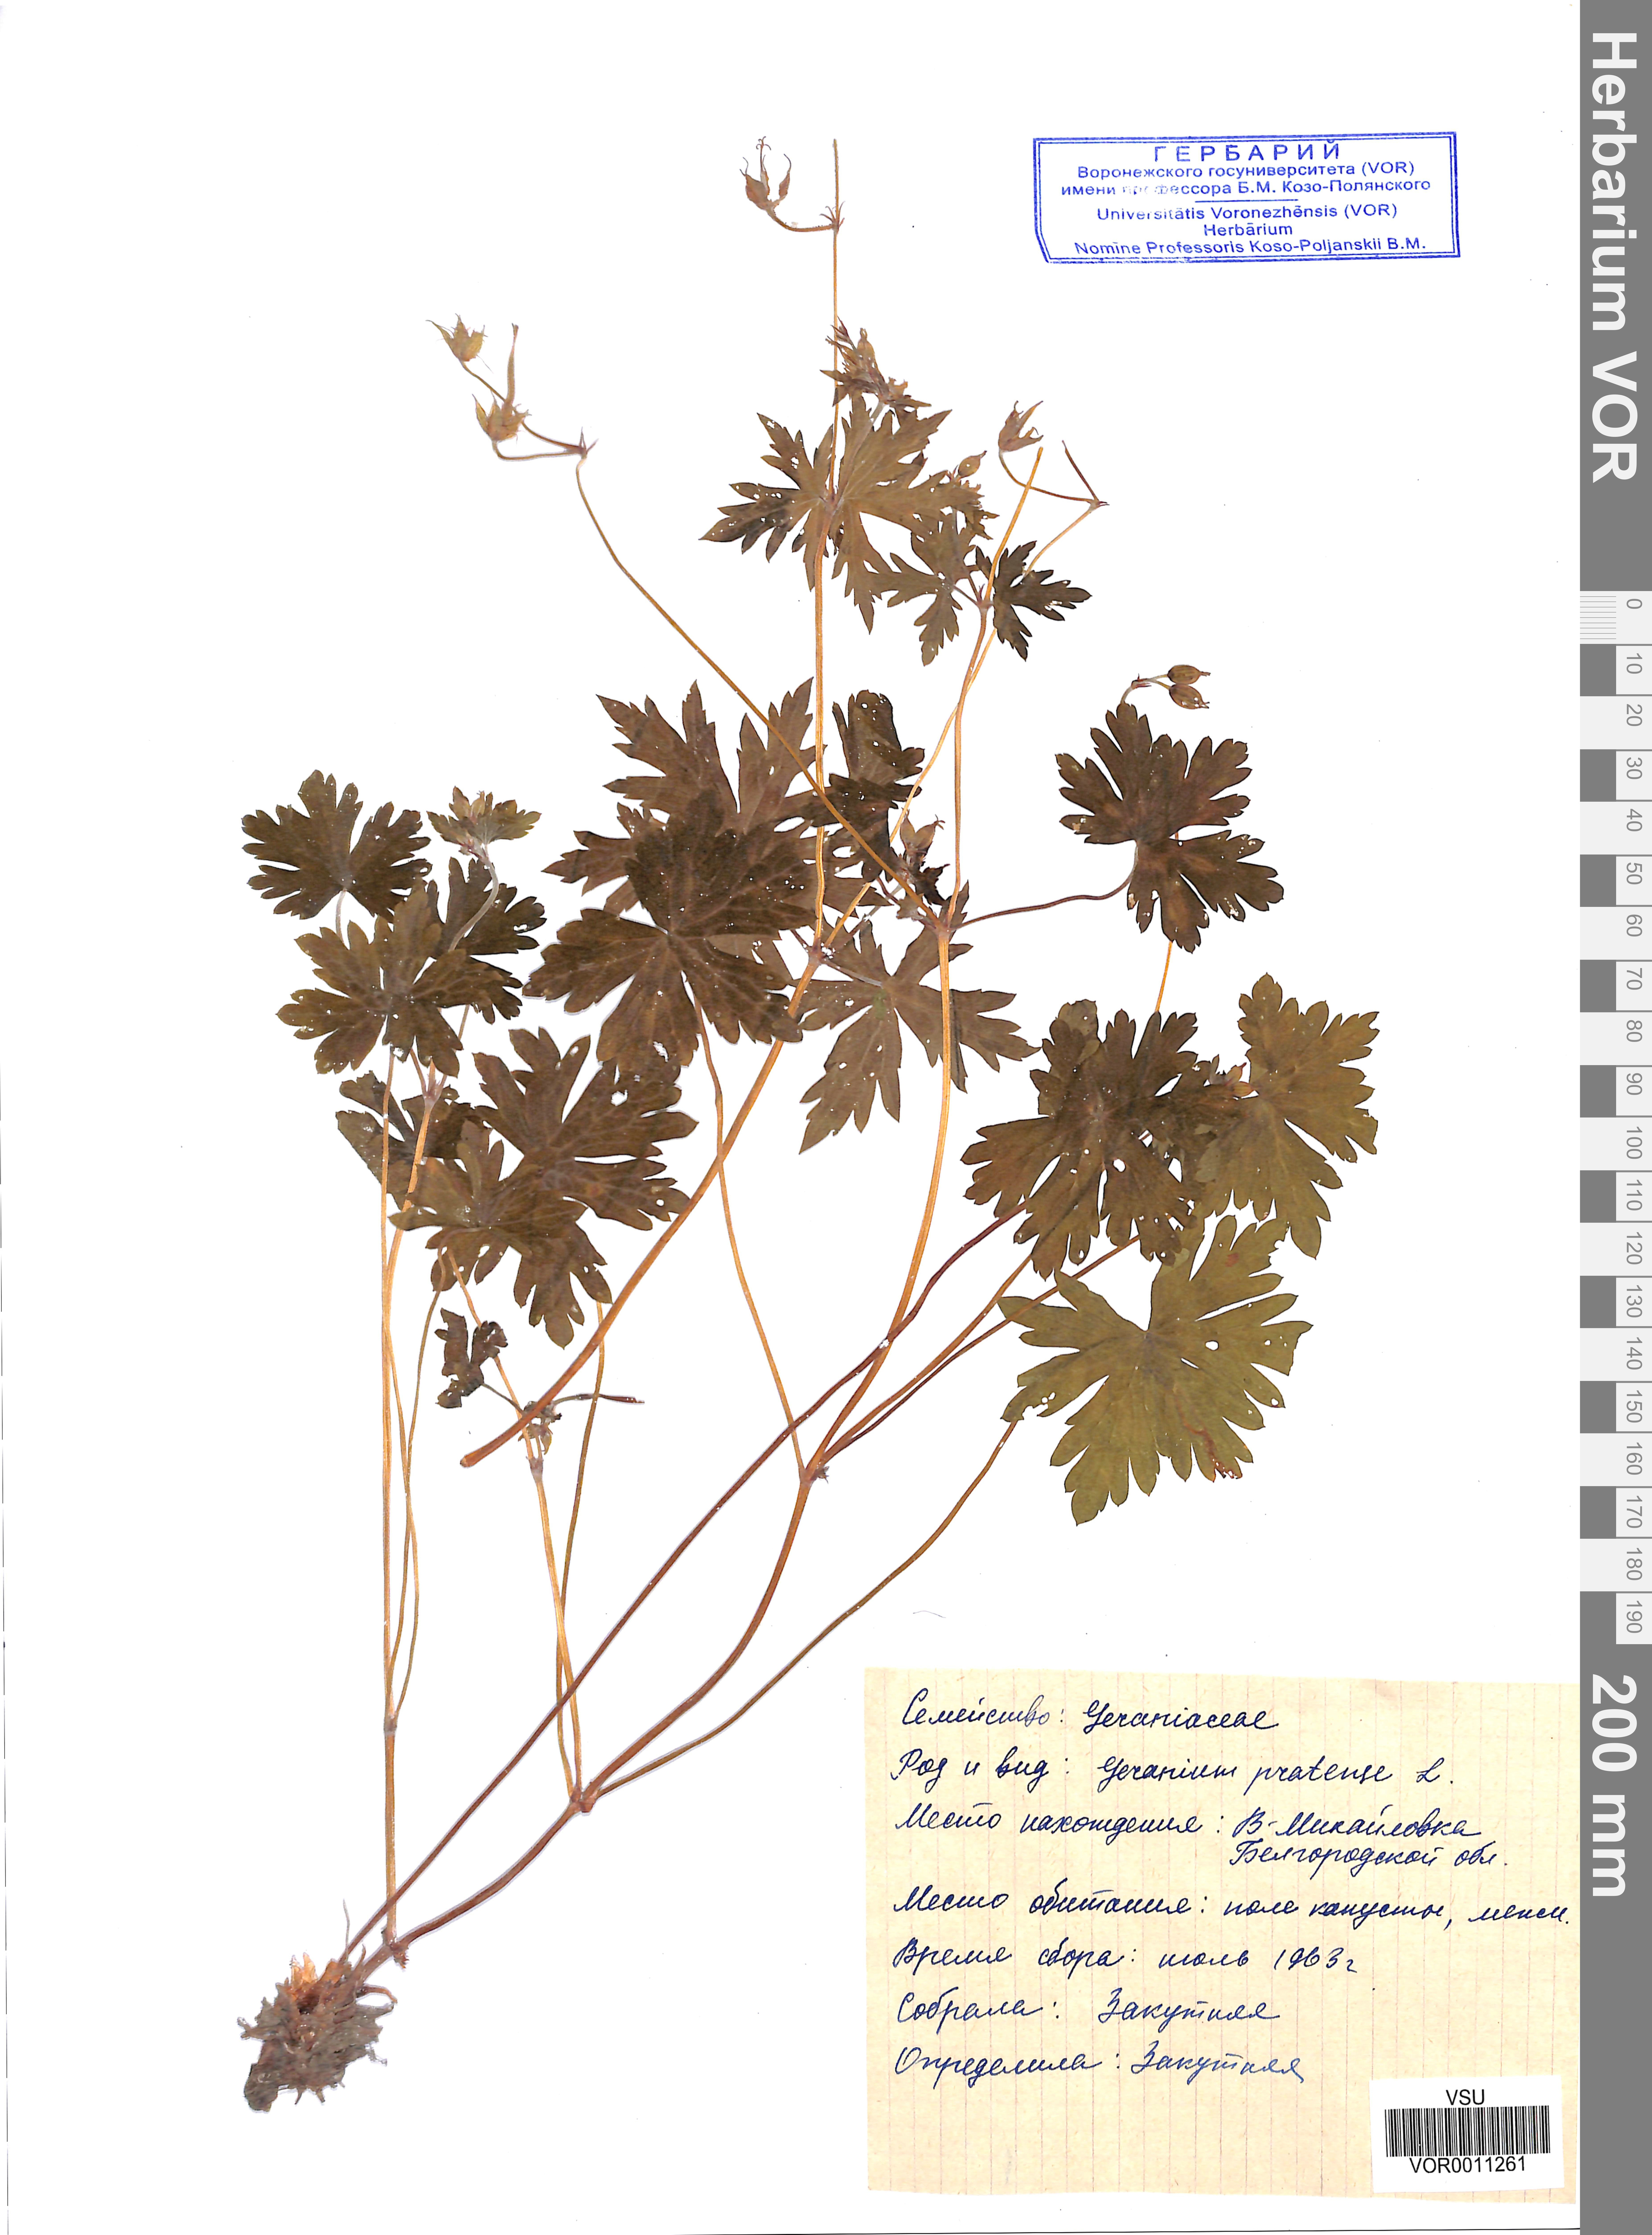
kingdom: Plantae
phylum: Tracheophyta
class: Magnoliopsida
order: Geraniales
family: Geraniaceae
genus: Geranium
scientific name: Geranium pratense
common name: Meadow crane's-bill
